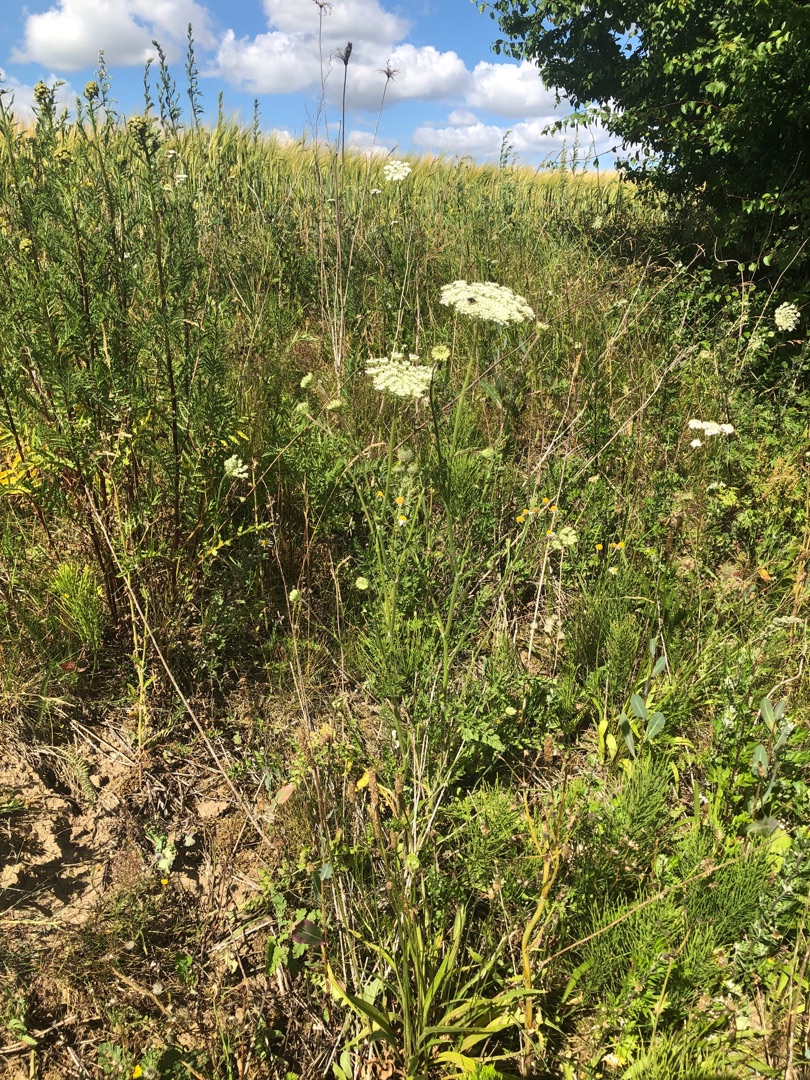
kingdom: Plantae
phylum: Tracheophyta
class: Magnoliopsida
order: Apiales
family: Apiaceae
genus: Daucus
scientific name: Daucus carota
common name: Vild gulerod
